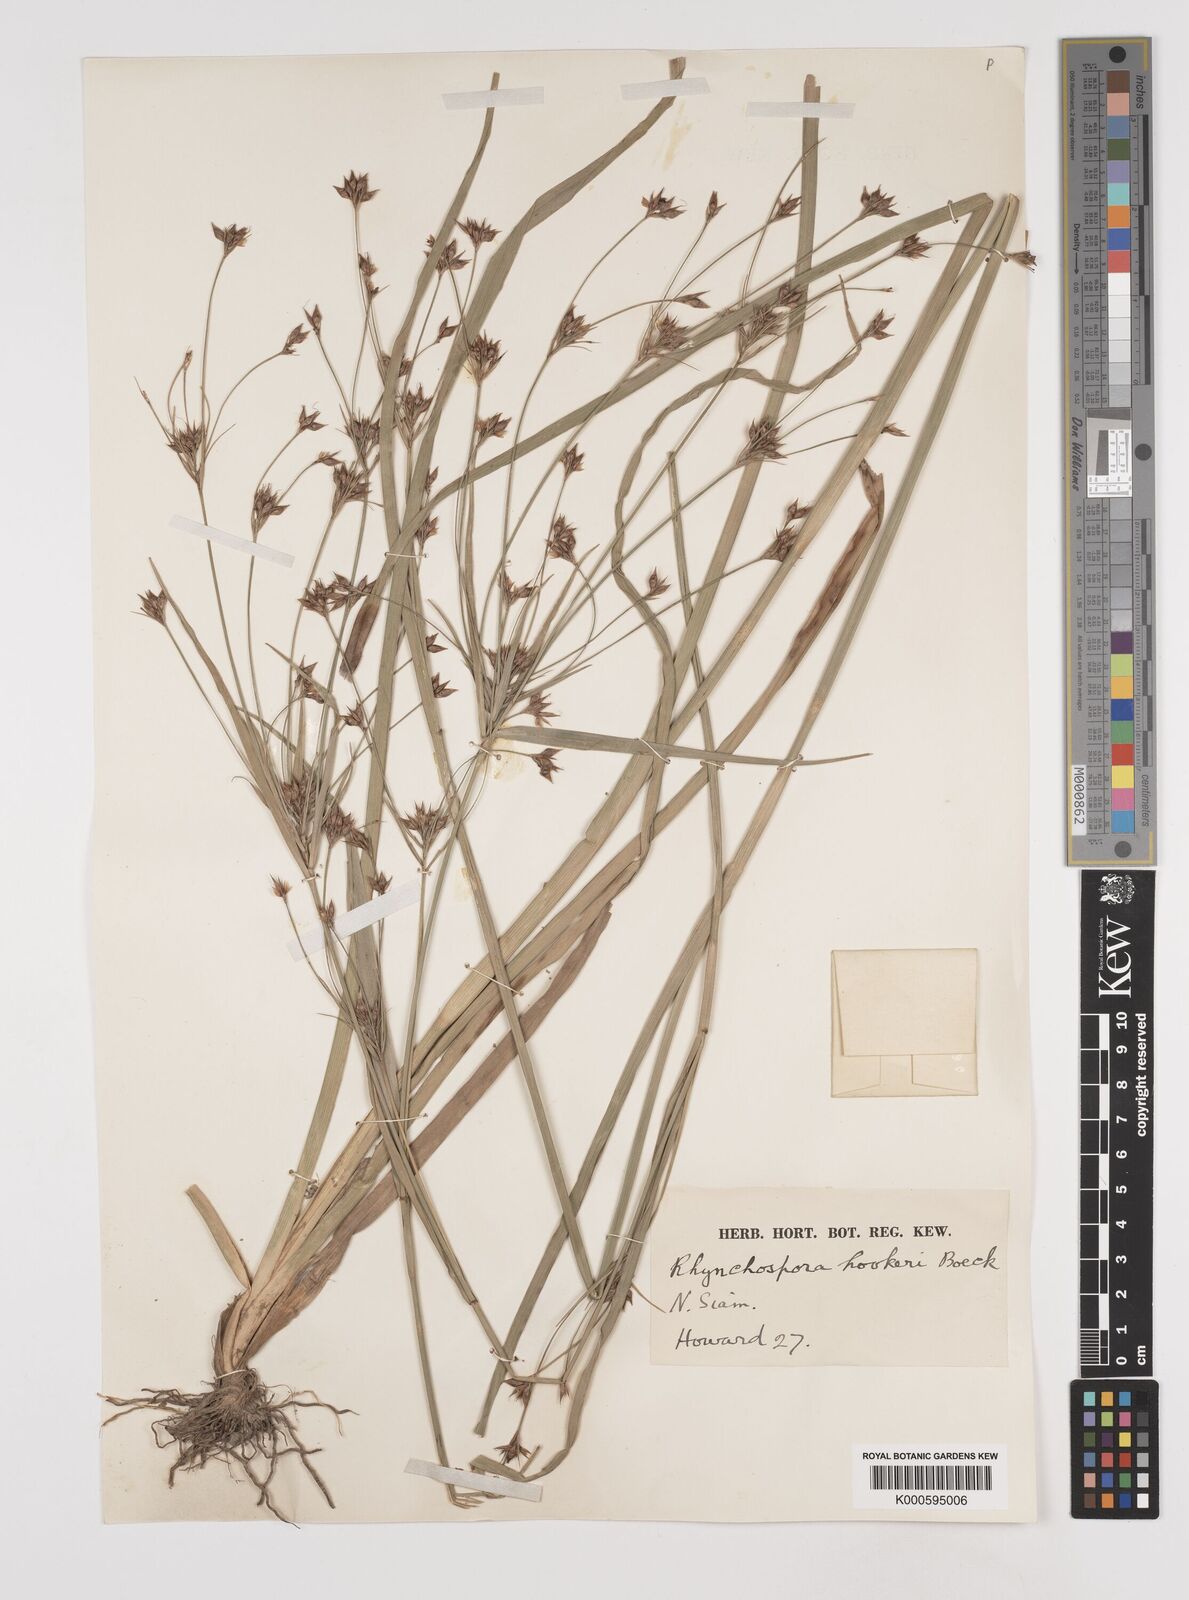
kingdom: Plantae
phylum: Tracheophyta
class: Liliopsida
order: Poales
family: Cyperaceae
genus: Rhynchospora
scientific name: Rhynchospora hookeri
